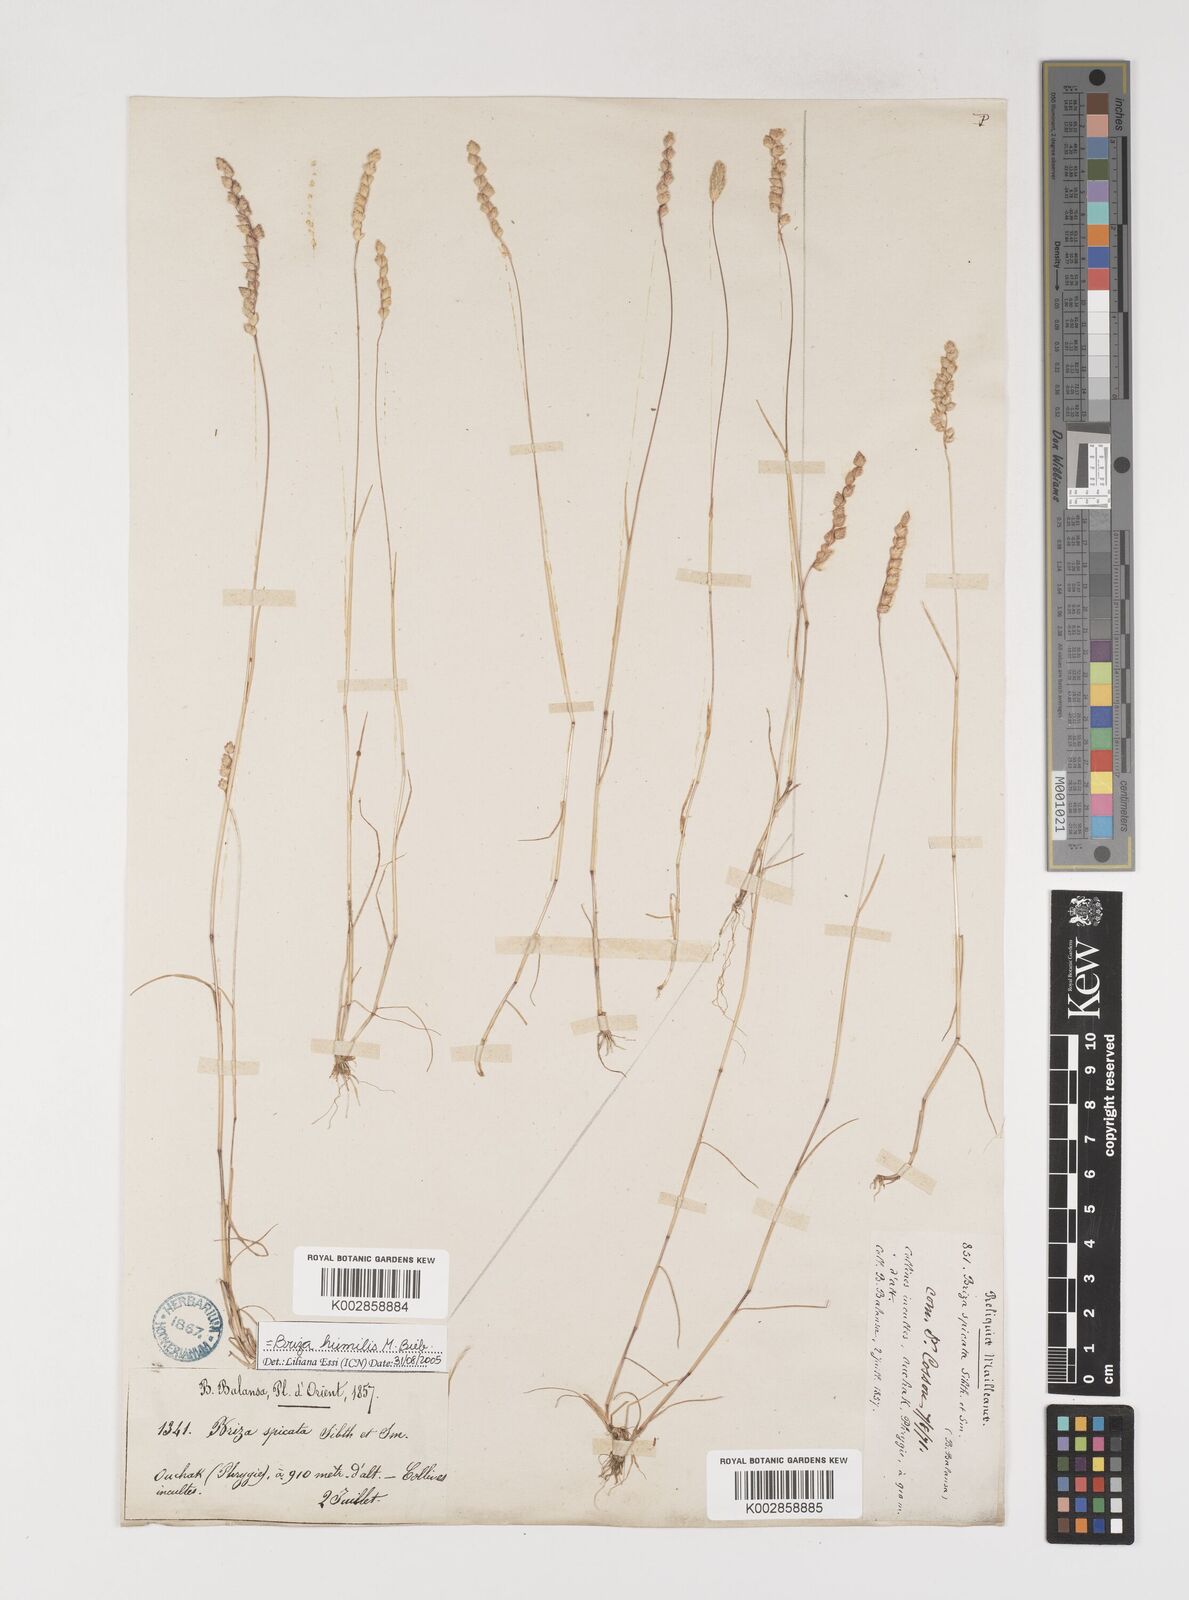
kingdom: Plantae
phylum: Tracheophyta
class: Liliopsida
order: Poales
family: Poaceae
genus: Briza
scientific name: Briza humilis
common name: Spiked quaking grass
